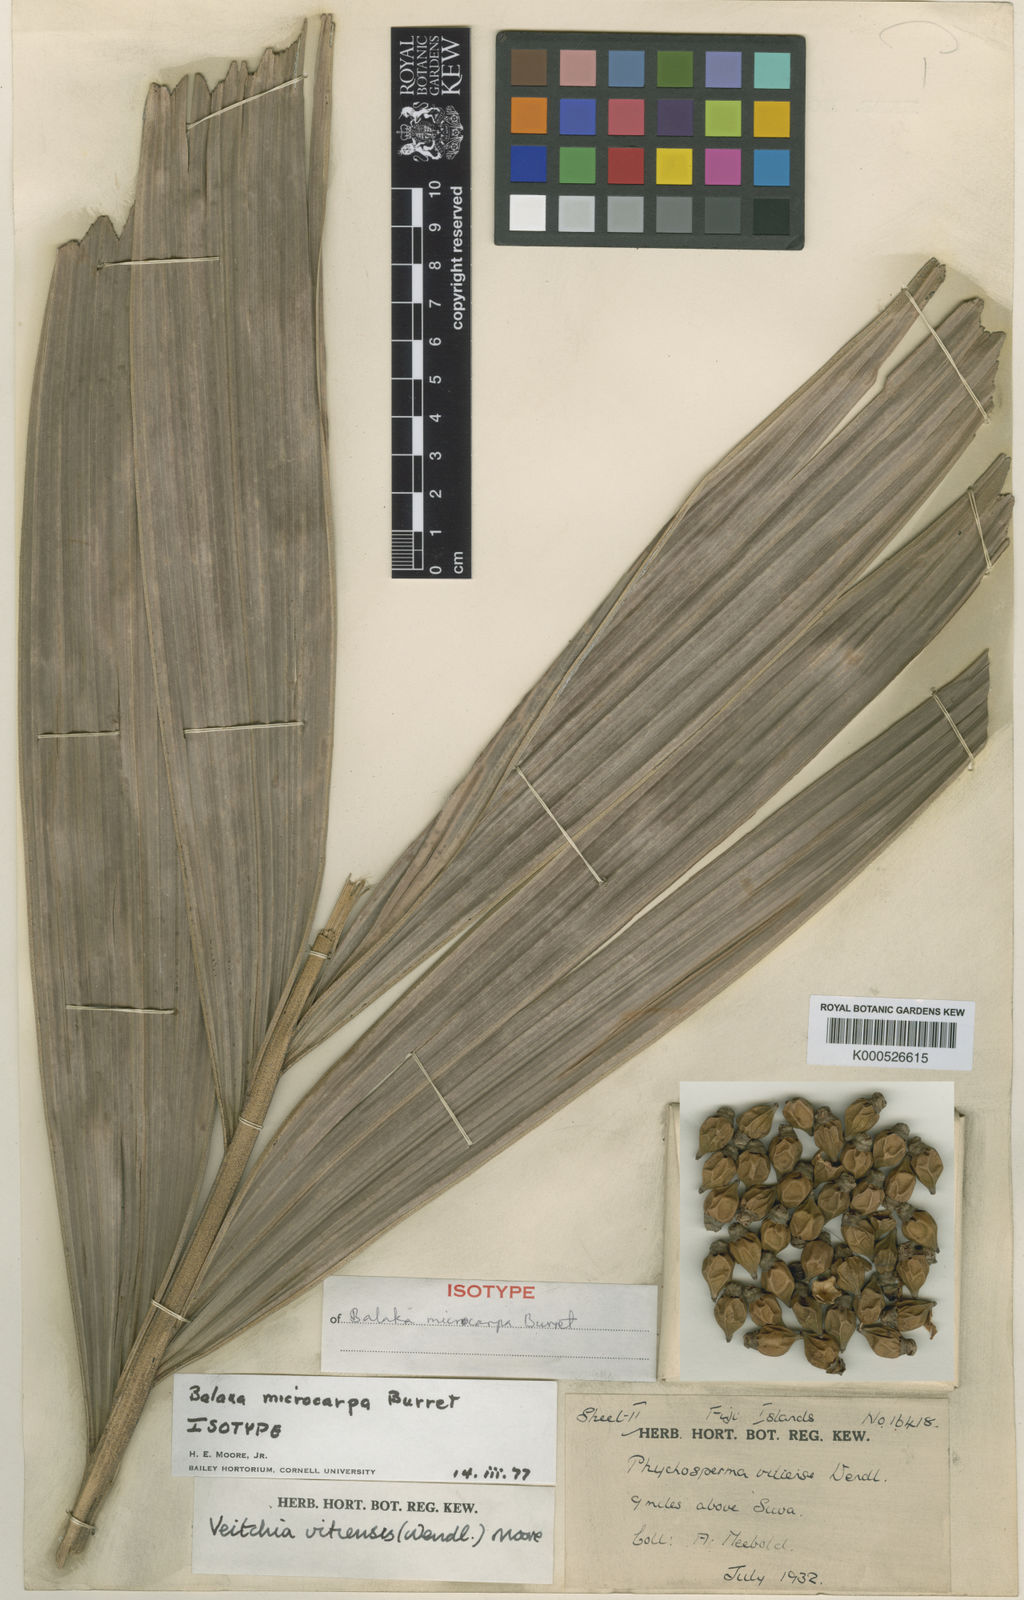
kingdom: Plantae
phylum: Tracheophyta
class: Liliopsida
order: Arecales
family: Arecaceae
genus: Balaka
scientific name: Balaka samoensis
